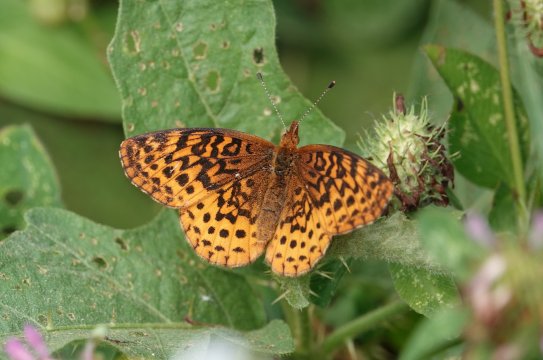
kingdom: Animalia
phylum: Arthropoda
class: Insecta
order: Lepidoptera
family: Nymphalidae
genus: Clossiana
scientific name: Clossiana toddi
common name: Meadow Fritillary
